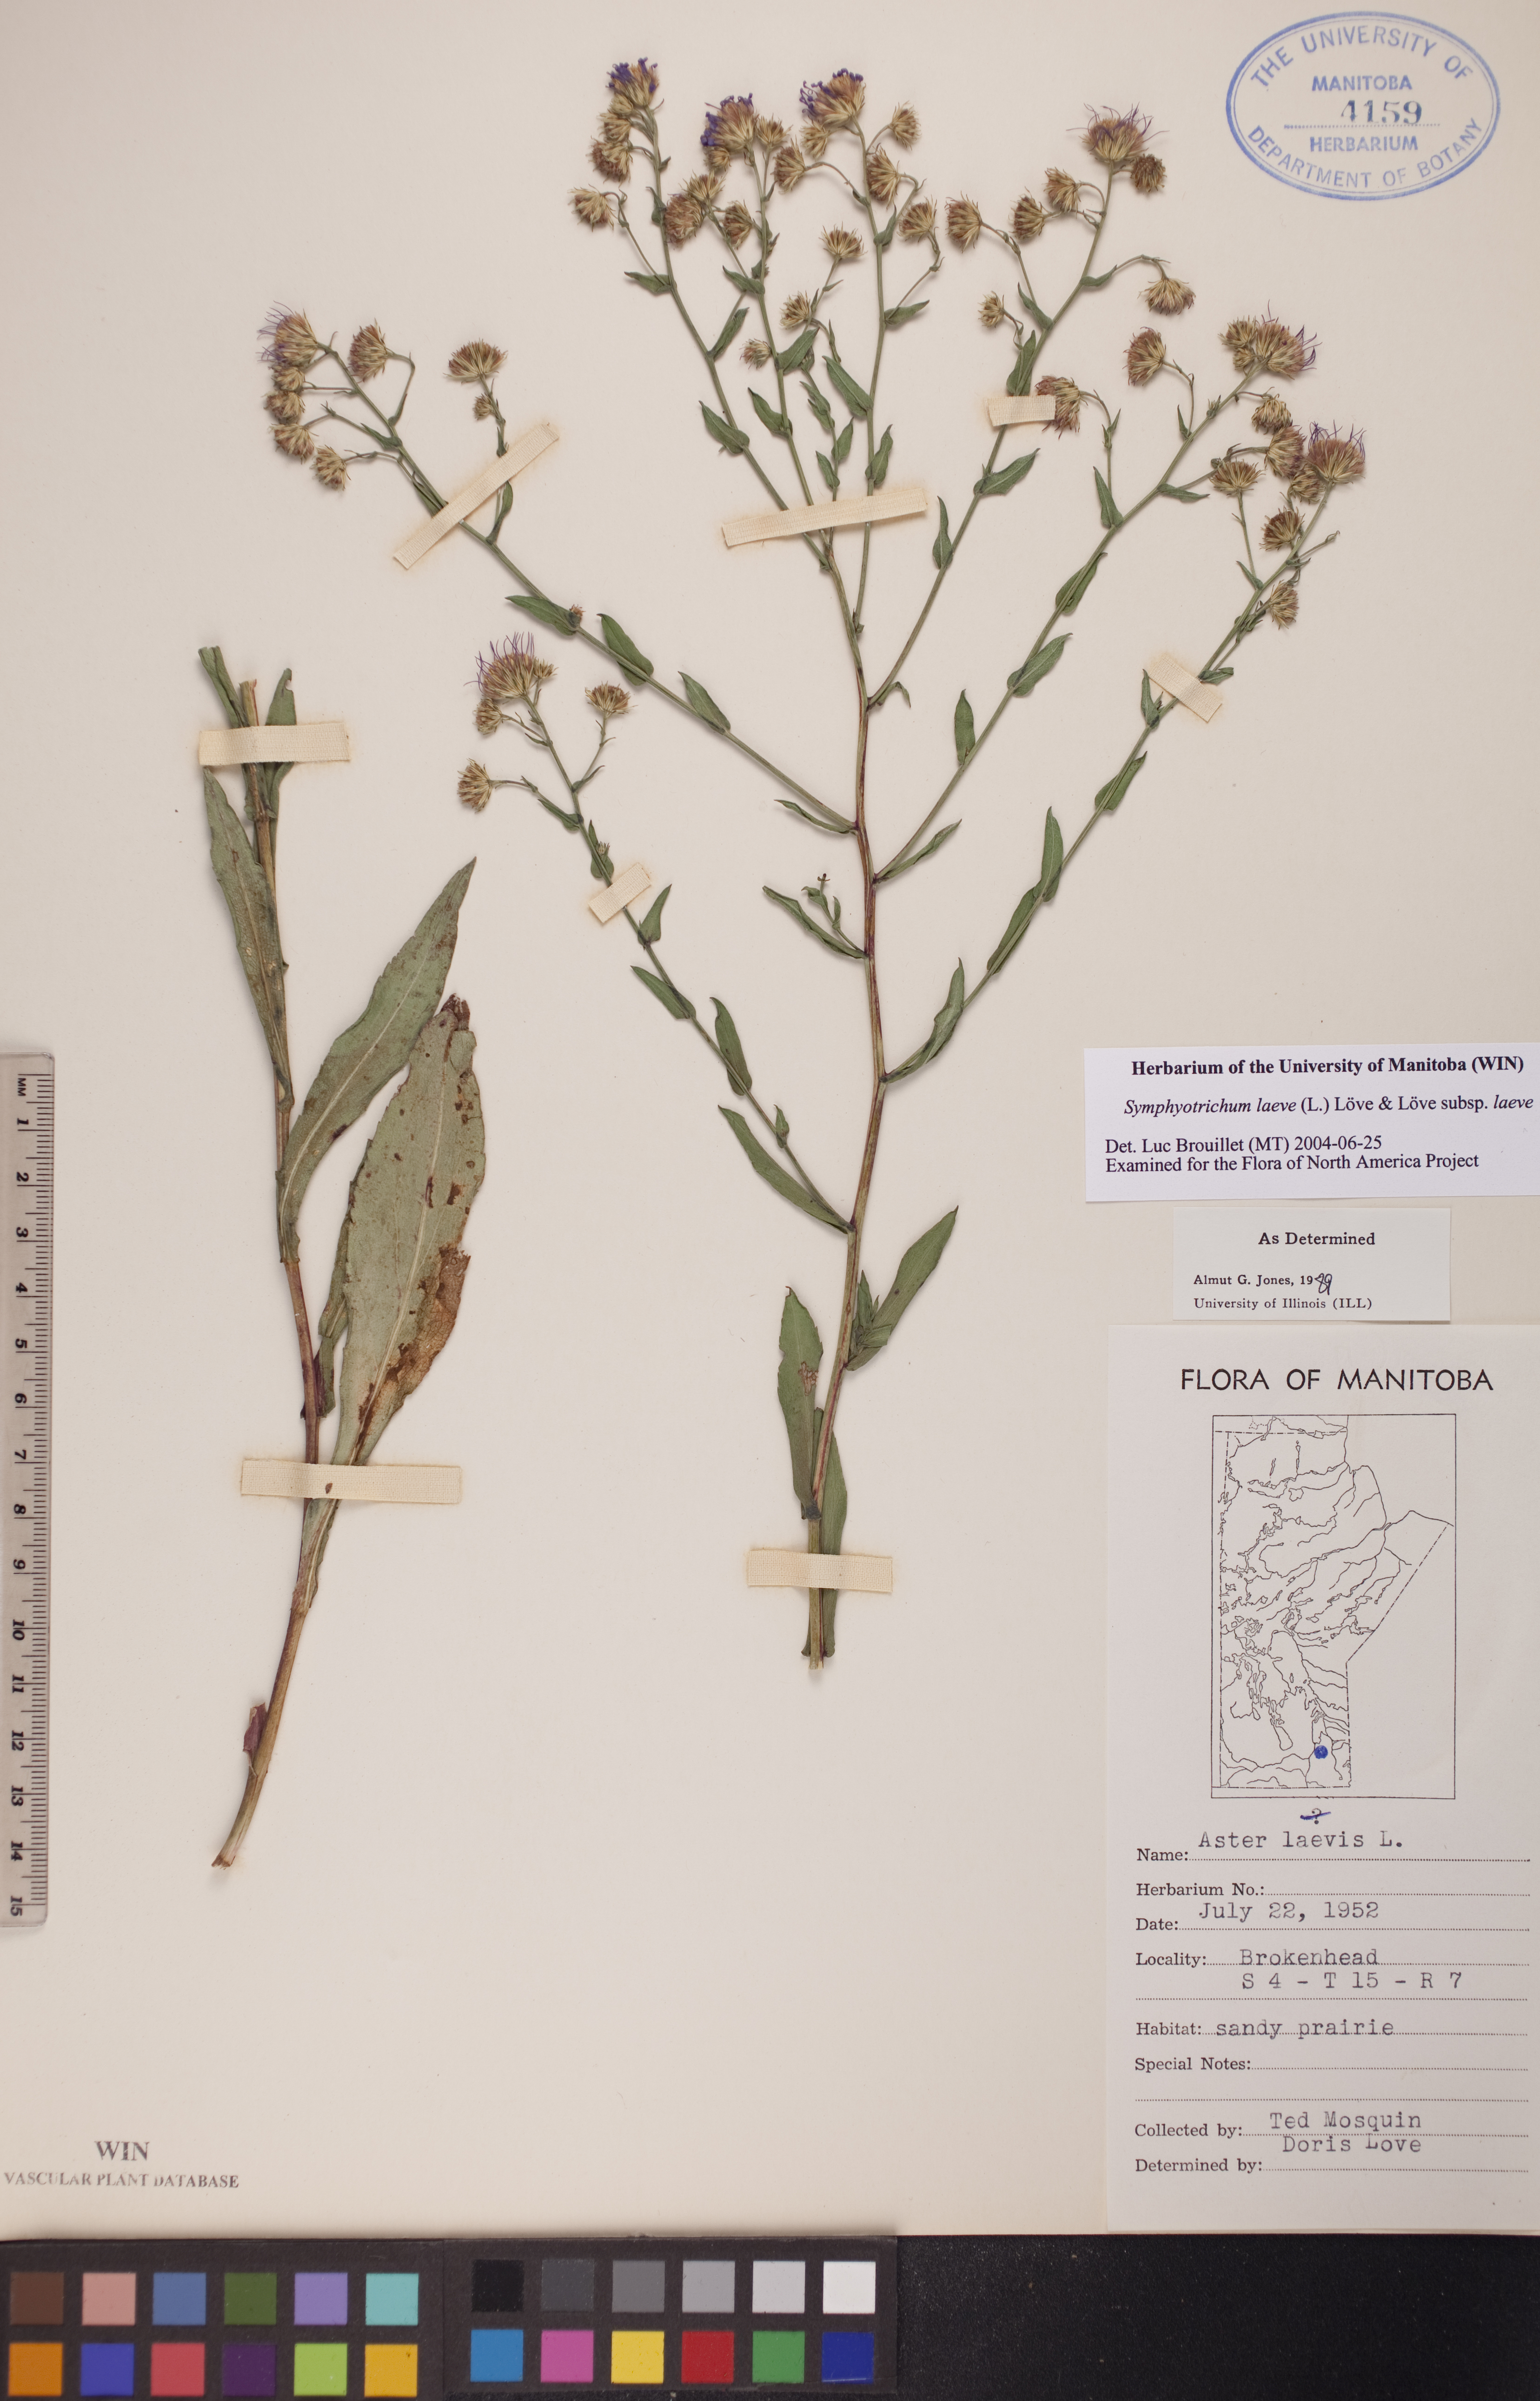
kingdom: Plantae
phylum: Tracheophyta
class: Magnoliopsida
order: Asterales
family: Asteraceae
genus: Symphyotrichum
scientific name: Symphyotrichum laeve
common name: Glaucous aster
